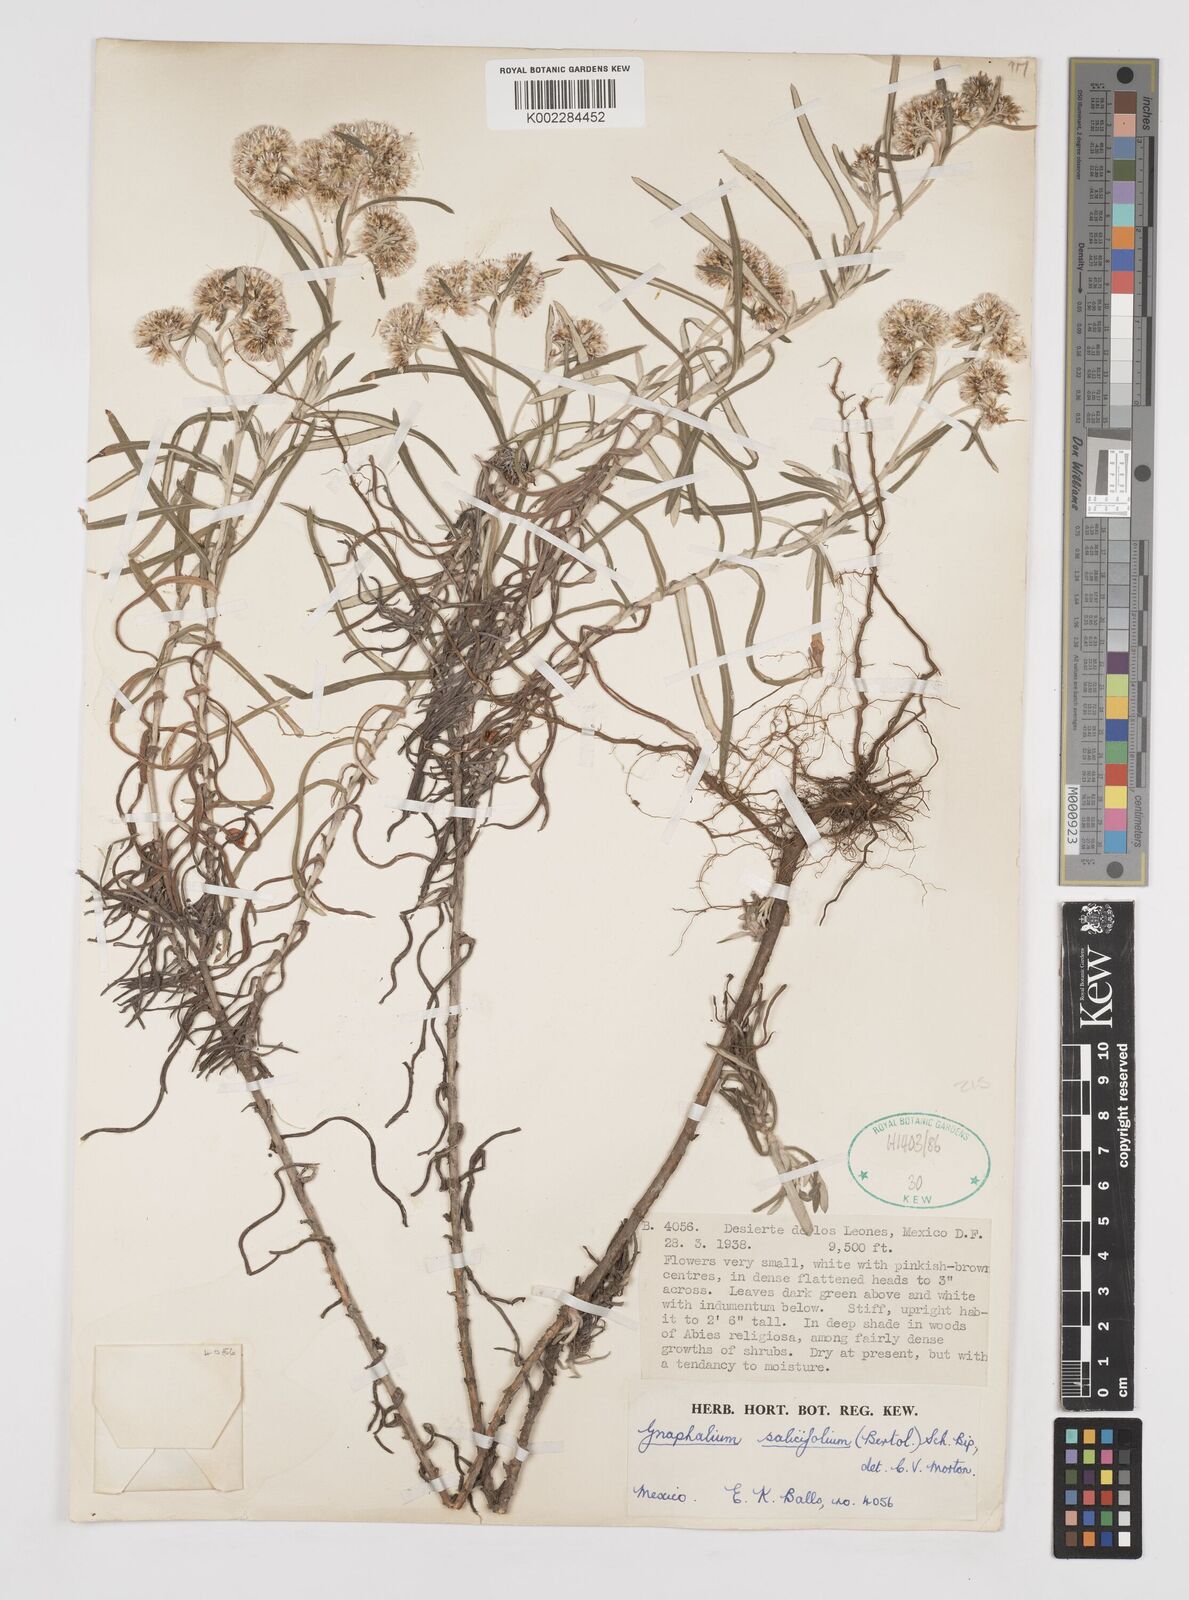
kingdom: Plantae
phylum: Tracheophyta
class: Magnoliopsida
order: Asterales
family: Asteraceae
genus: Gnaphaliothamnus
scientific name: Gnaphaliothamnus salicifolius
